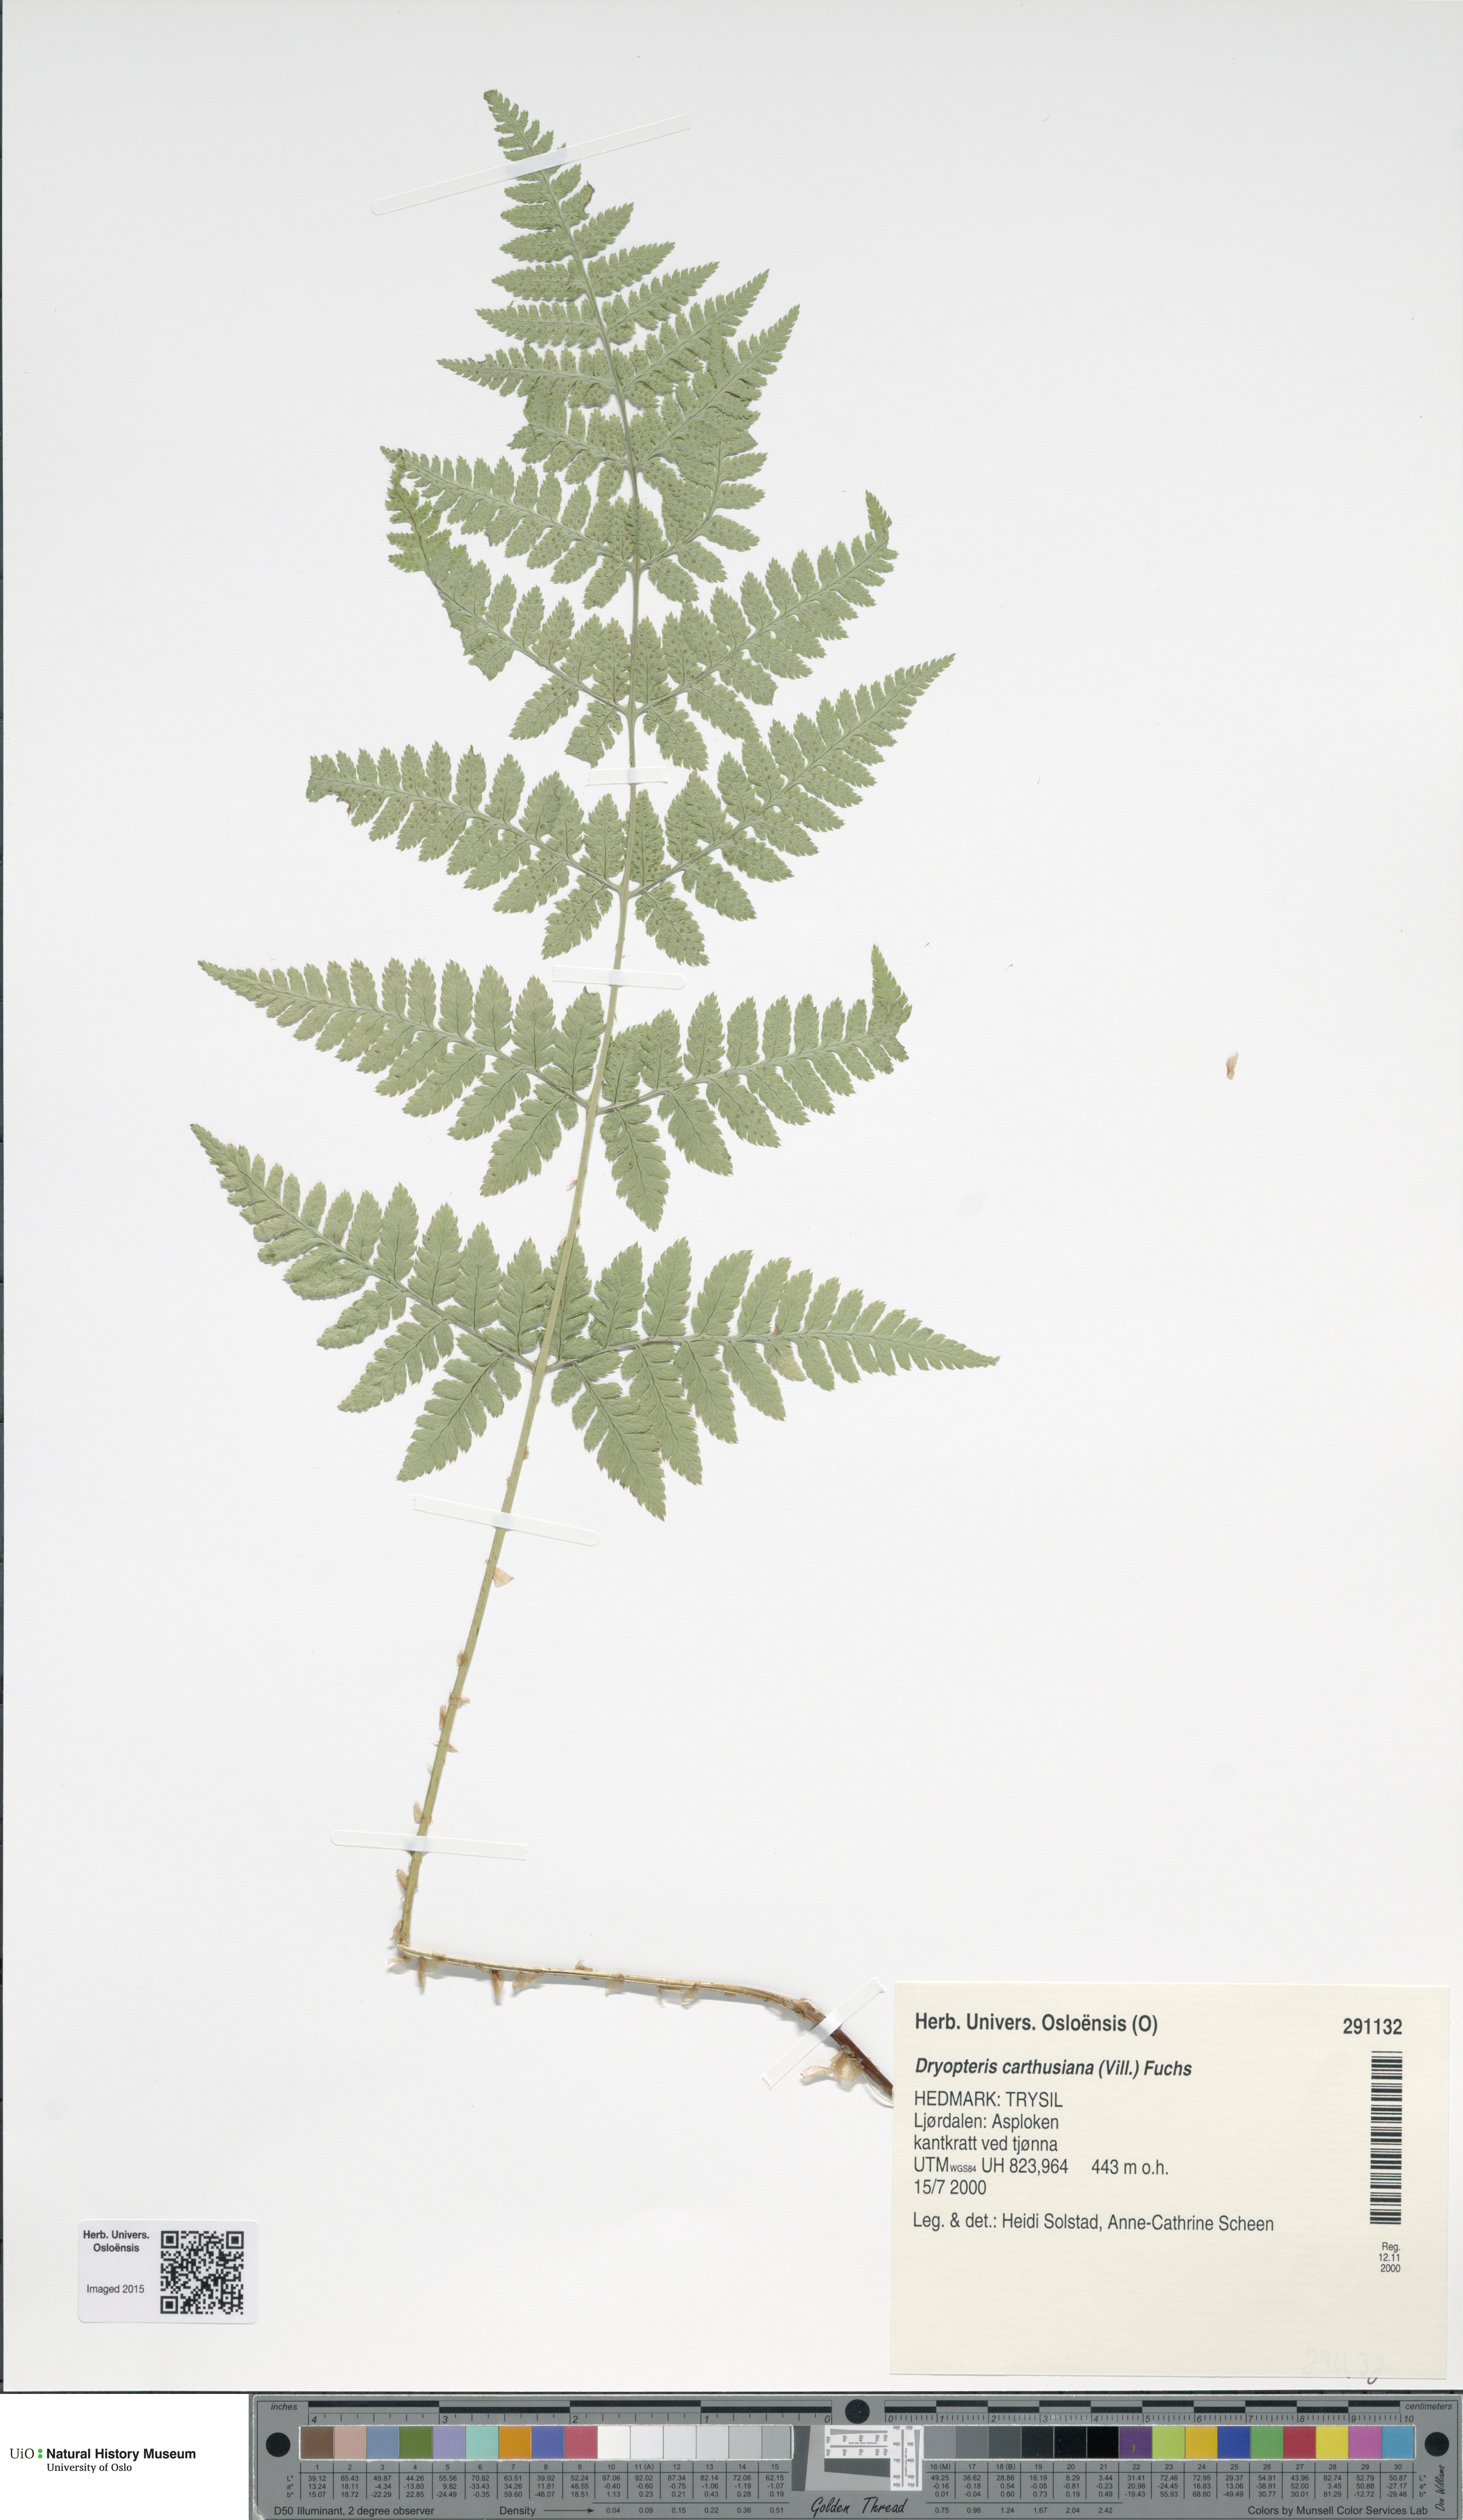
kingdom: Plantae
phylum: Tracheophyta
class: Polypodiopsida
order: Polypodiales
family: Dryopteridaceae
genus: Dryopteris
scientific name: Dryopteris carthusiana
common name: Narrow buckler-fern
